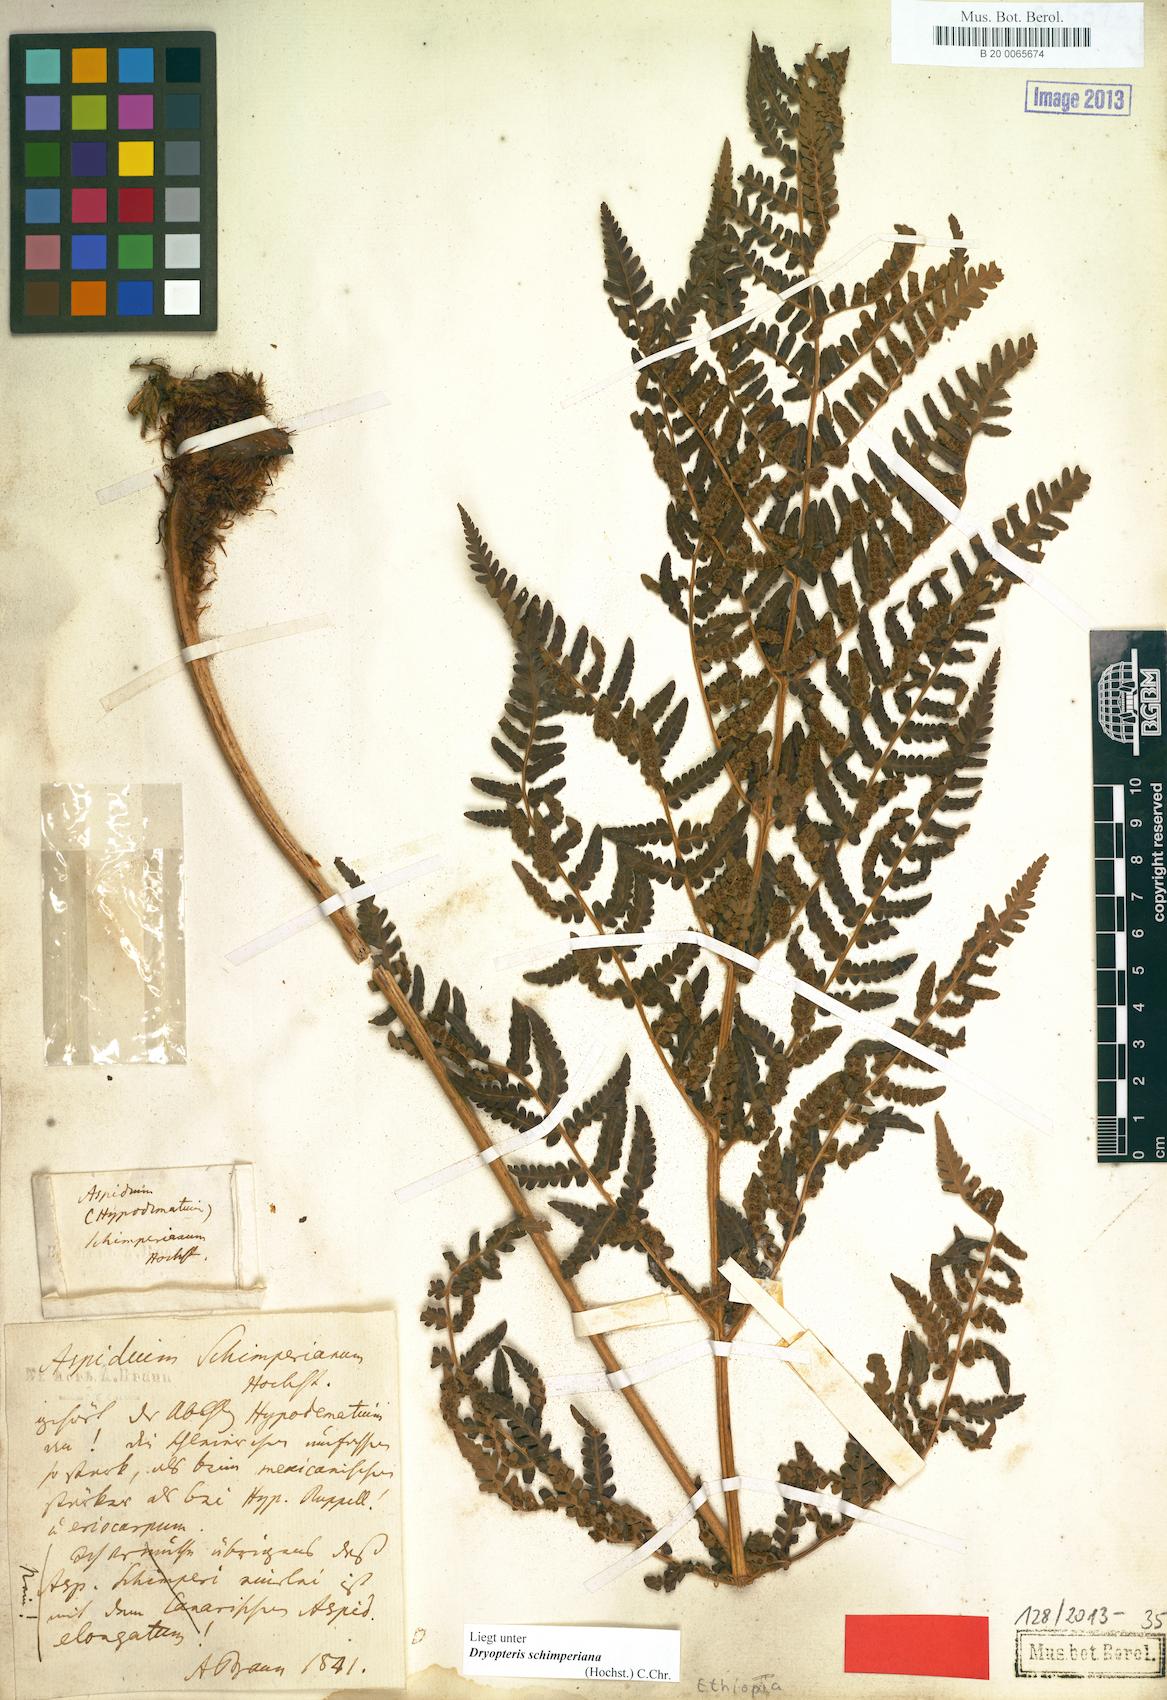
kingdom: Plantae
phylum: Tracheophyta
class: Polypodiopsida
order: Polypodiales
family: Dryopteridaceae
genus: Dryopteris
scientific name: Dryopteris schimperiana
